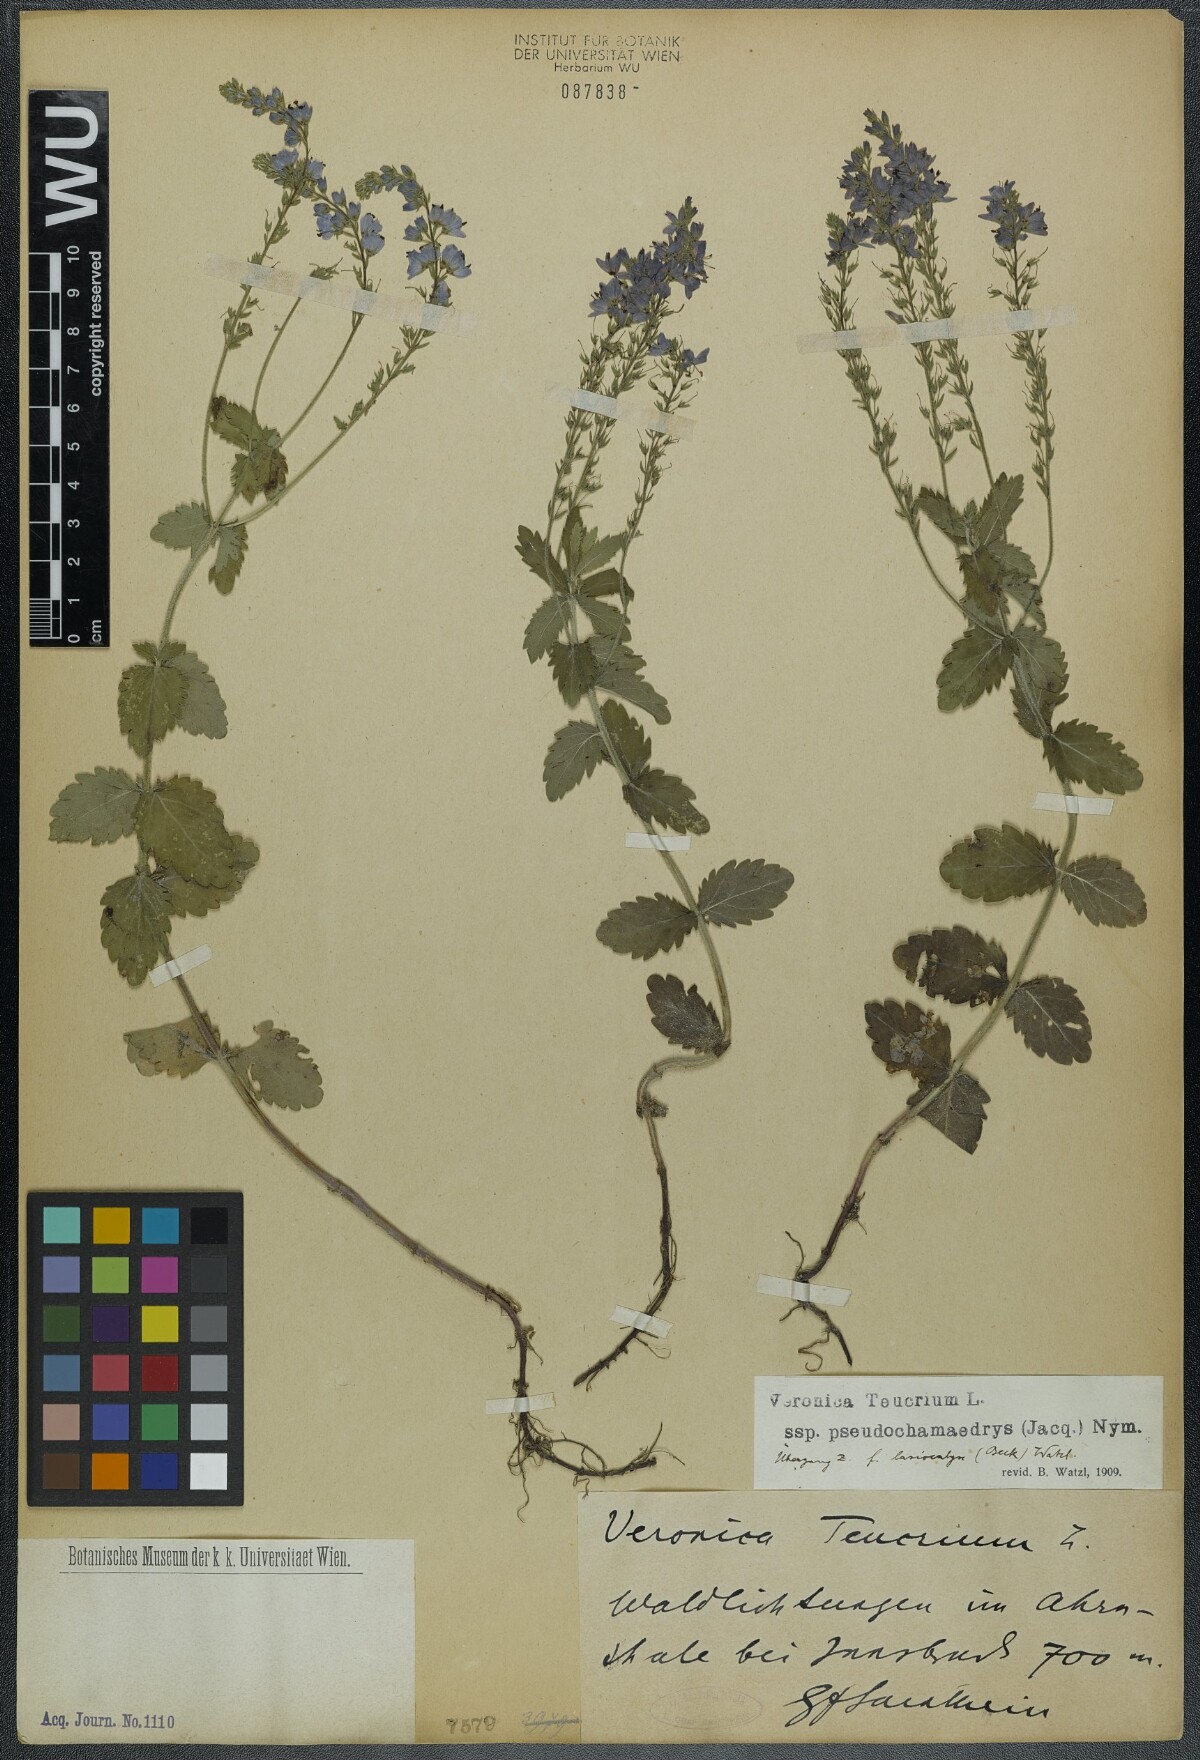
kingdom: Plantae
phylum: Tracheophyta
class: Magnoliopsida
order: Lamiales
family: Plantaginaceae
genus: Veronica
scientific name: Veronica teucrium
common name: Large speedwell
